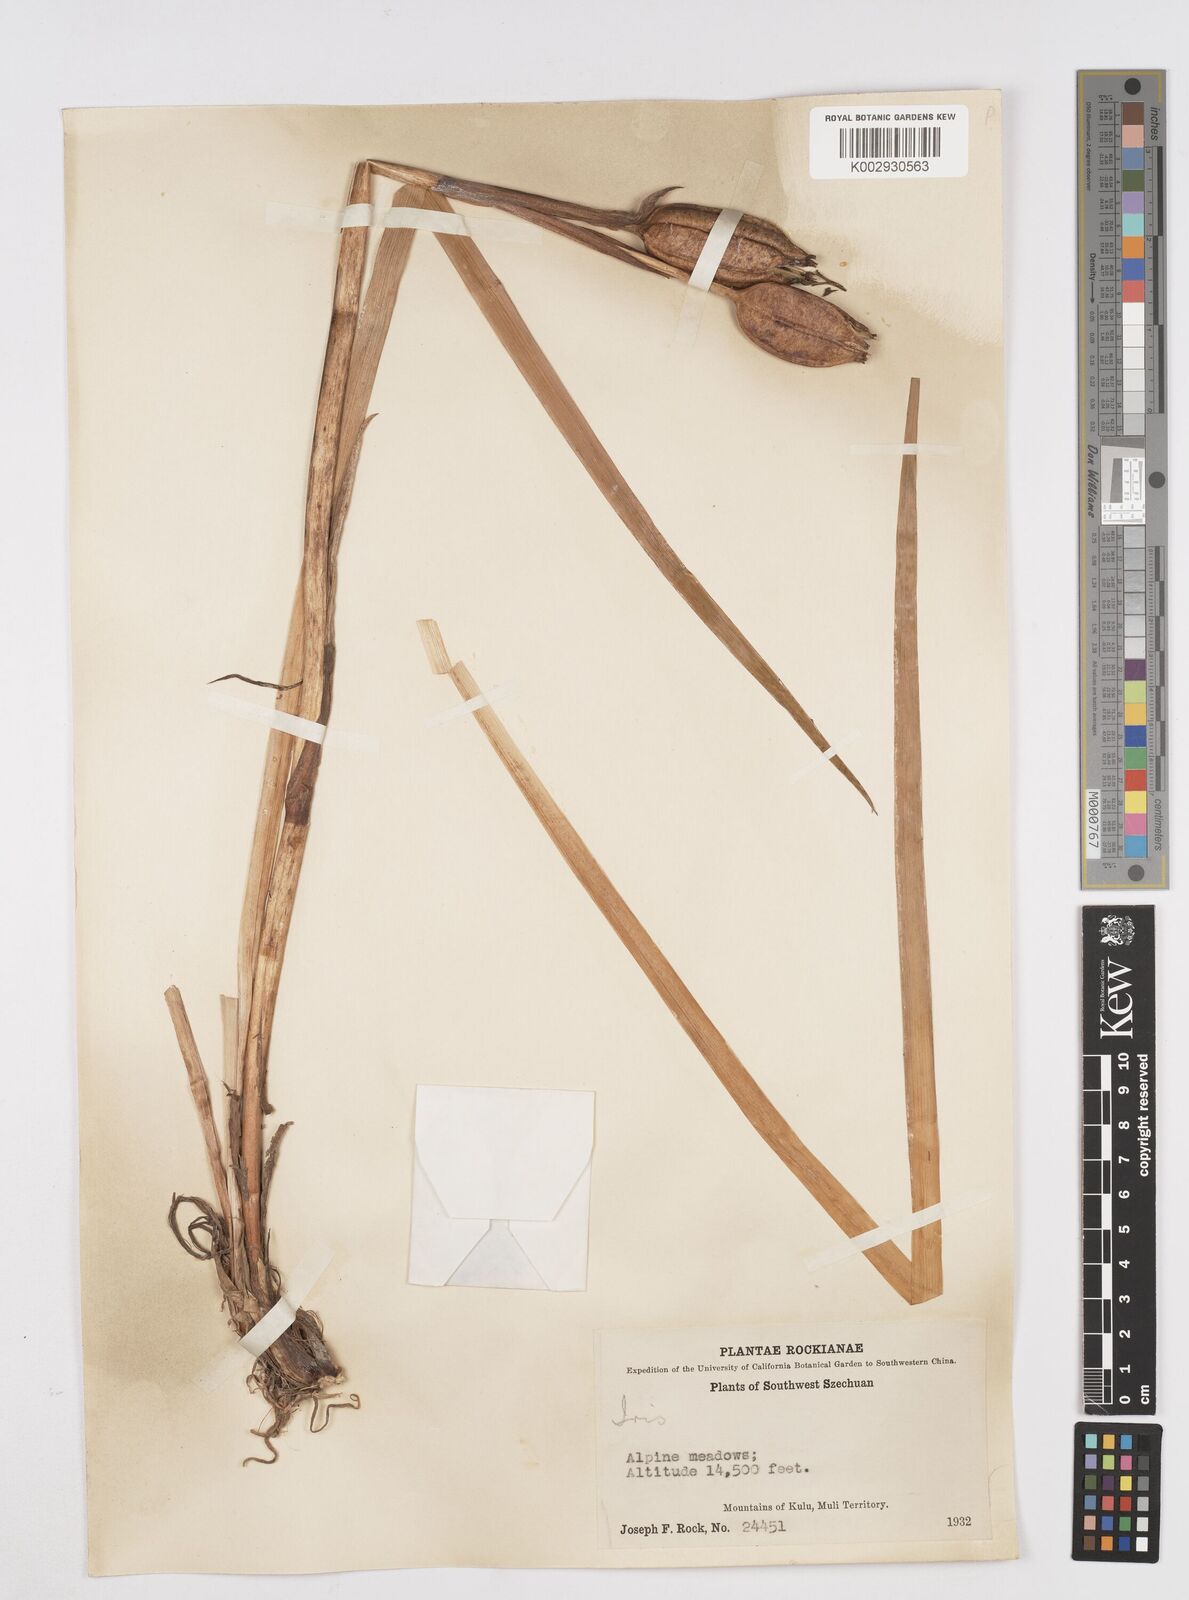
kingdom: Plantae
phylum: Tracheophyta
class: Liliopsida
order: Asparagales
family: Iridaceae
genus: Iris
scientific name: Iris bulleyana
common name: Southwest iris
